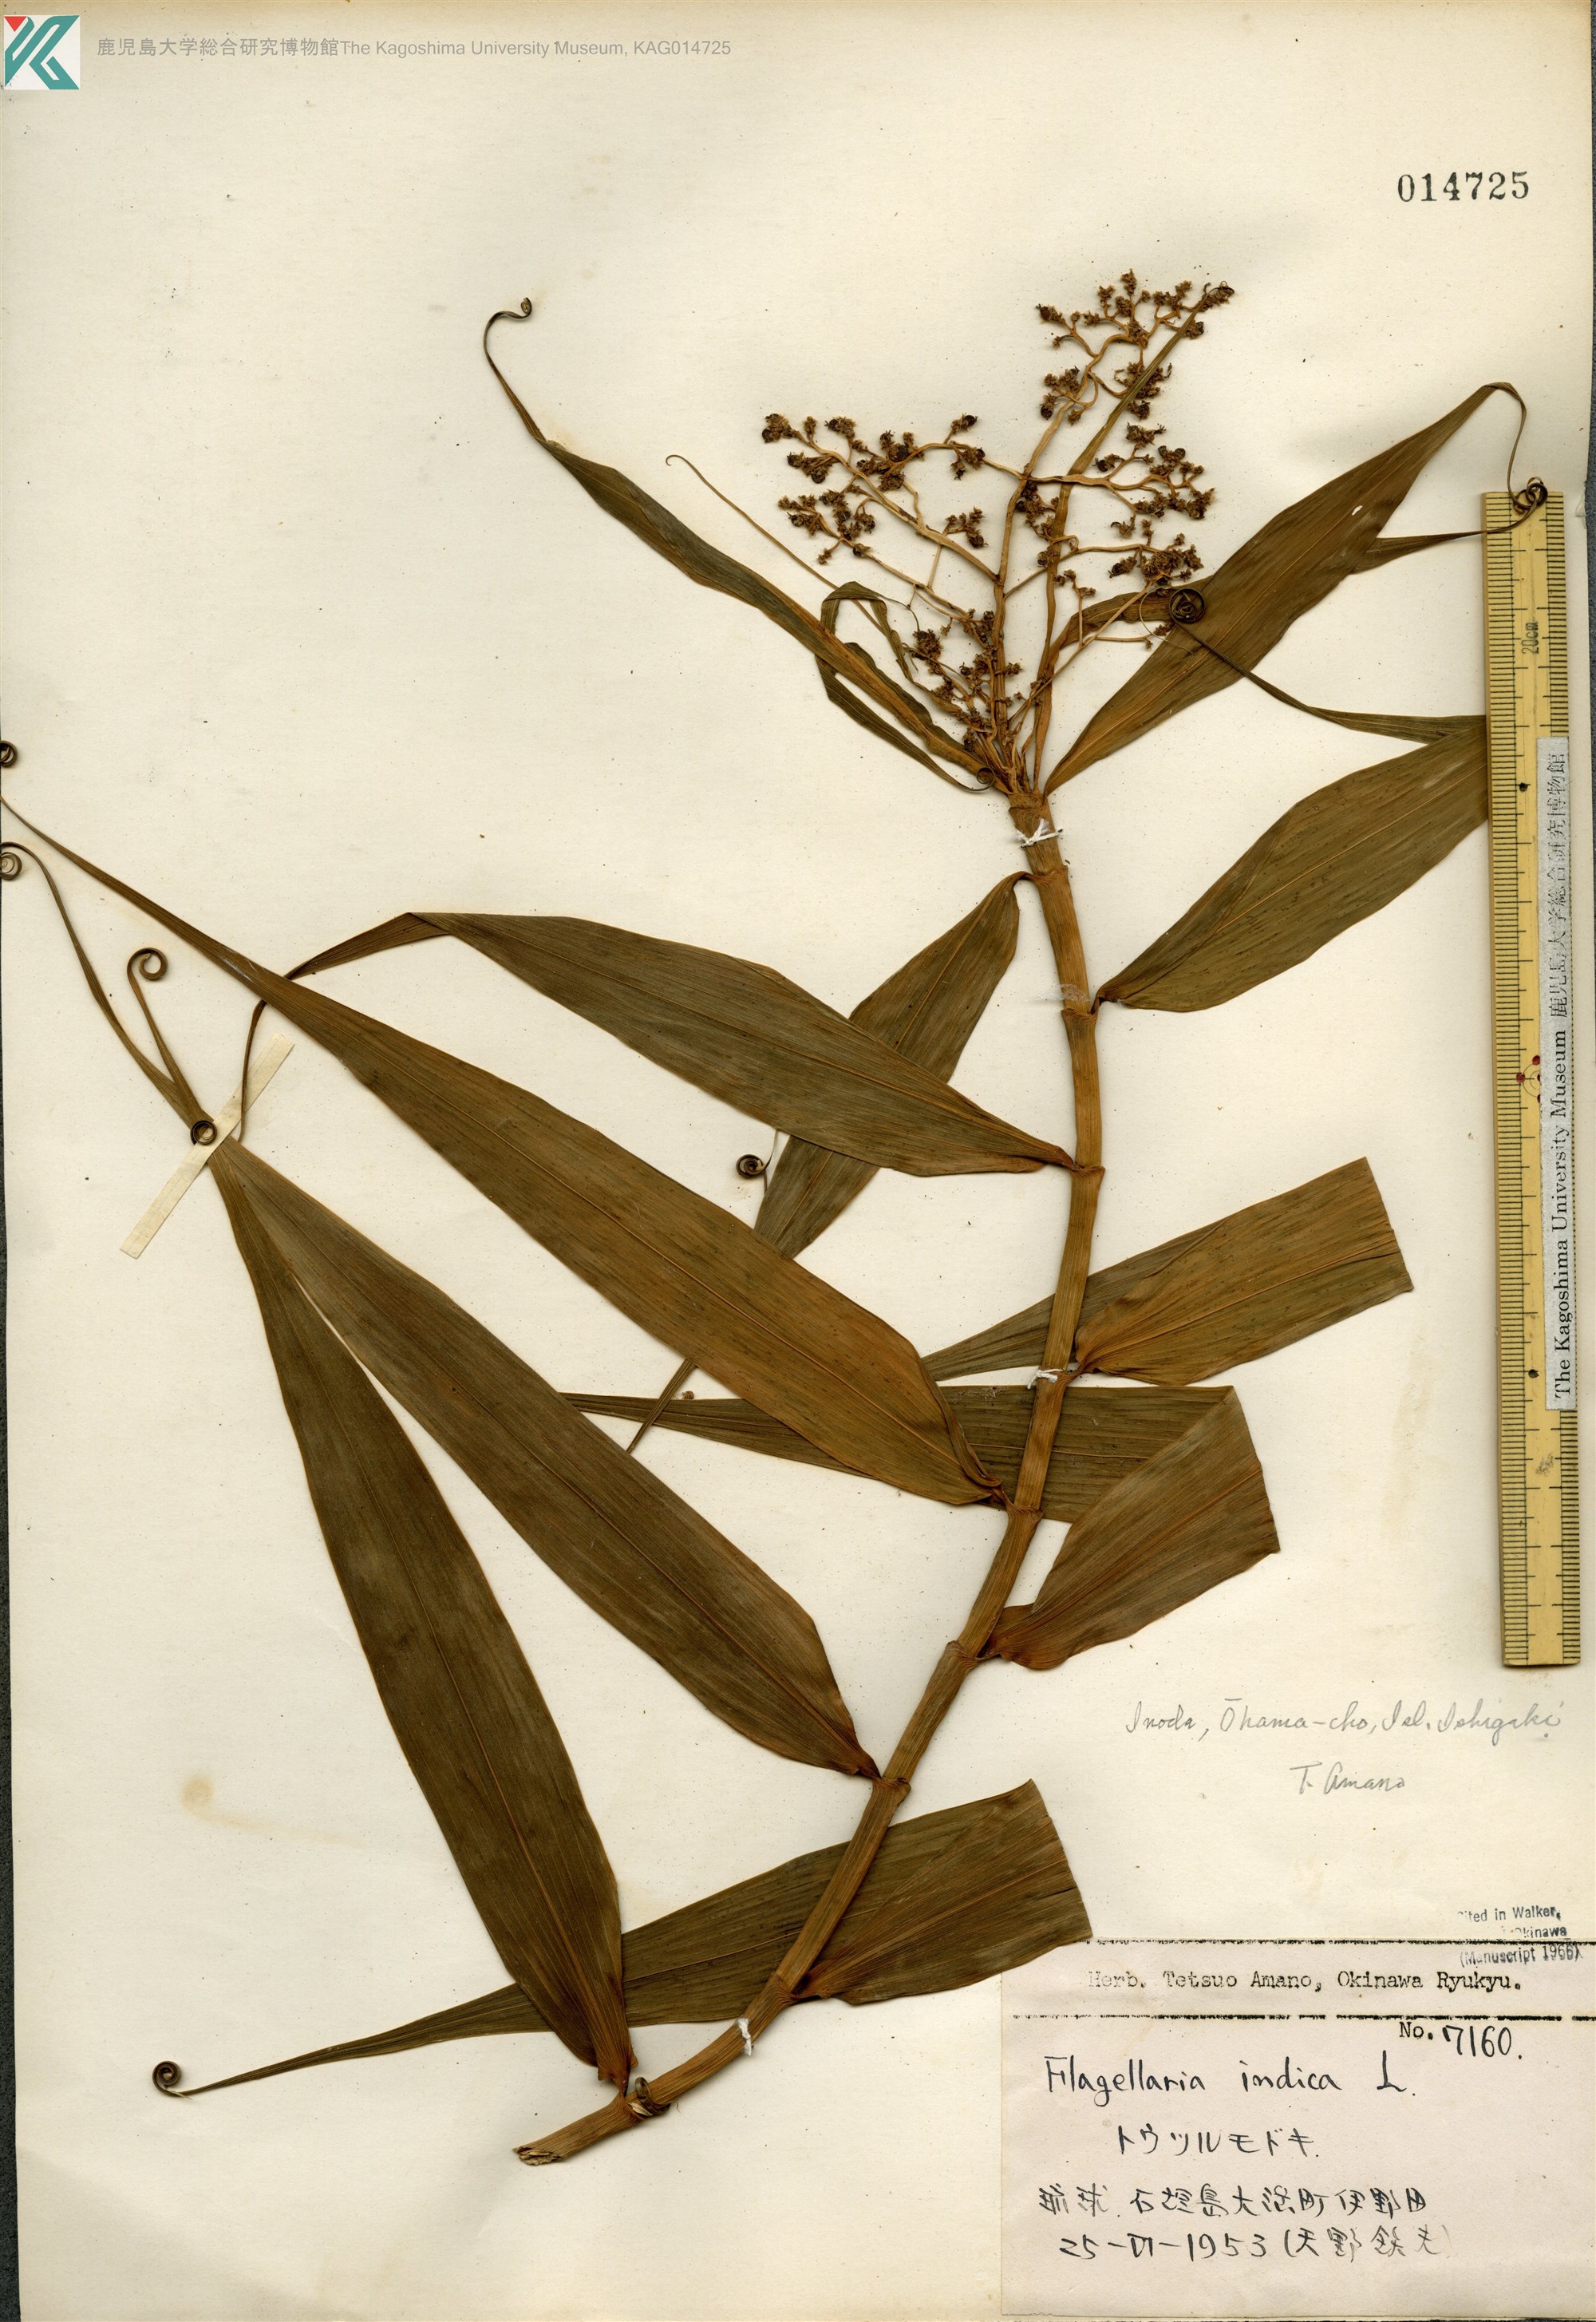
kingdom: Plantae
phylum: Tracheophyta
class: Liliopsida
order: Poales
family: Flagellariaceae
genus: Flagellaria
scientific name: Flagellaria indica
